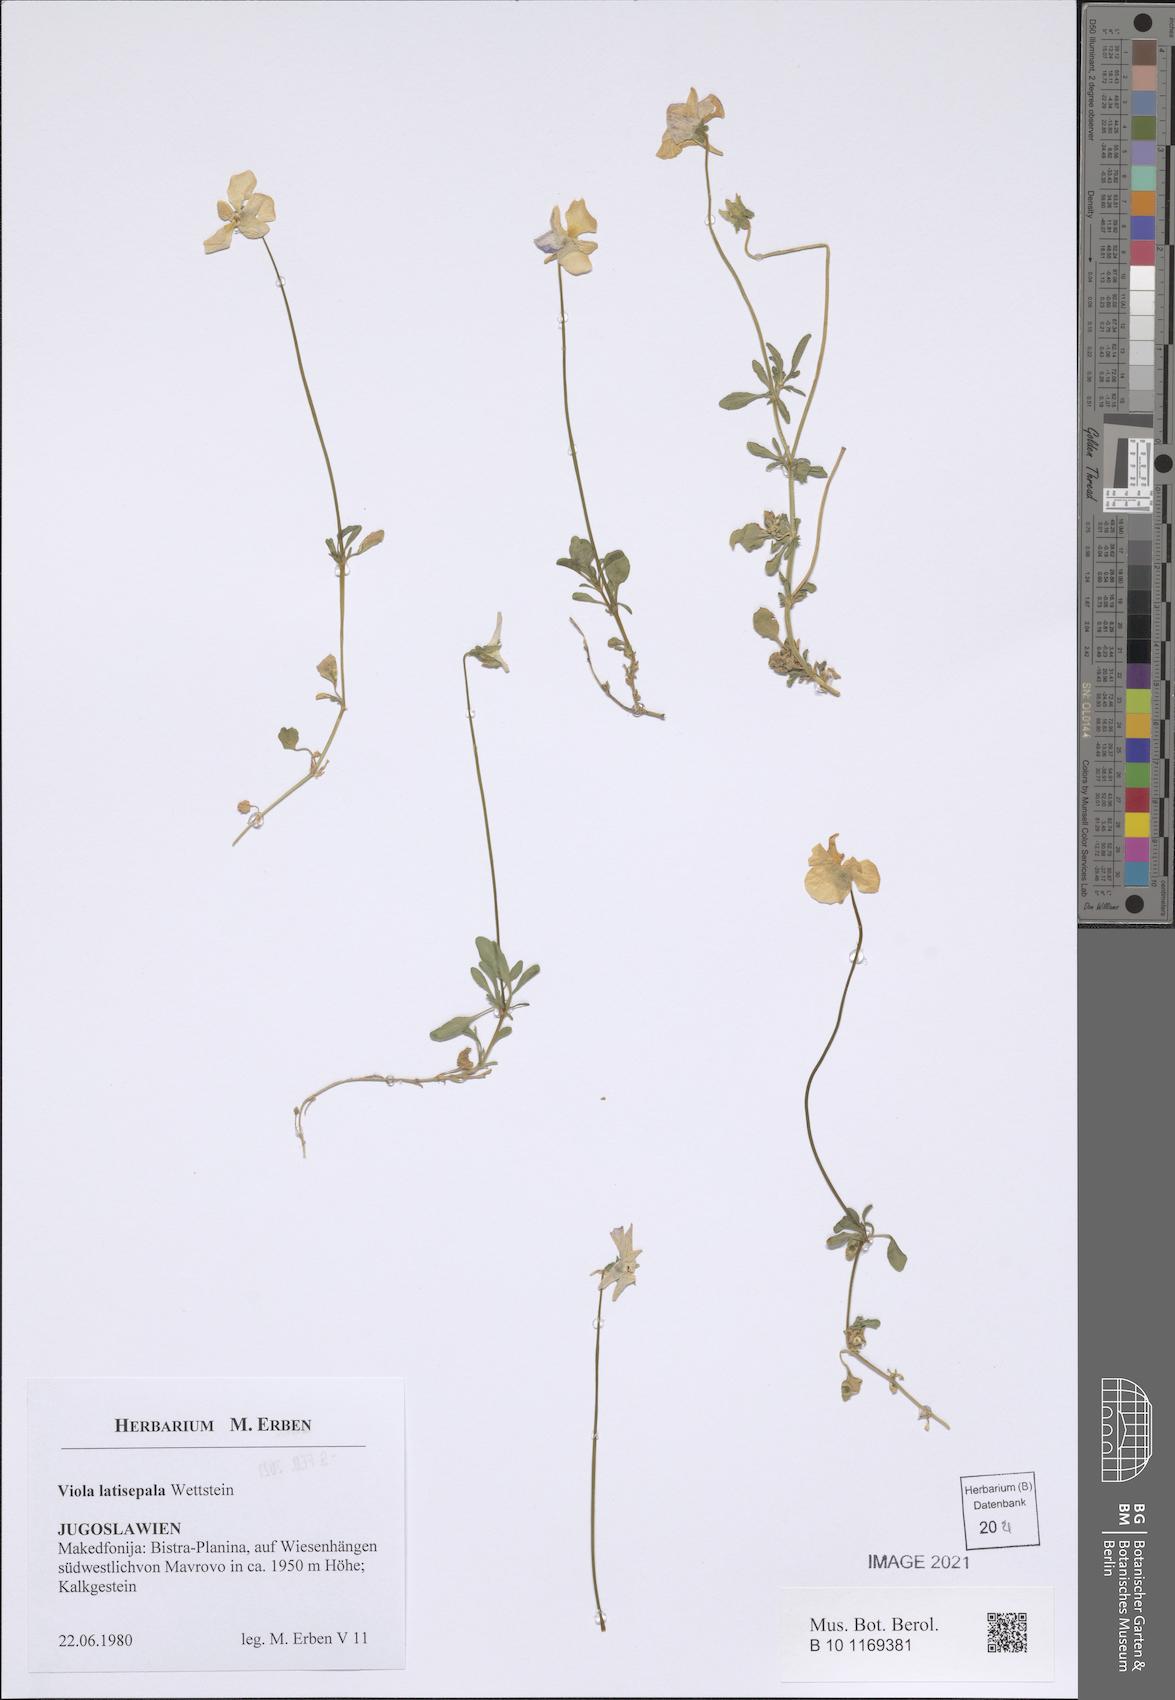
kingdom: Plantae
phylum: Tracheophyta
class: Magnoliopsida
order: Malpighiales
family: Violaceae
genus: Viola
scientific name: Viola tricolor
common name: Pansy
